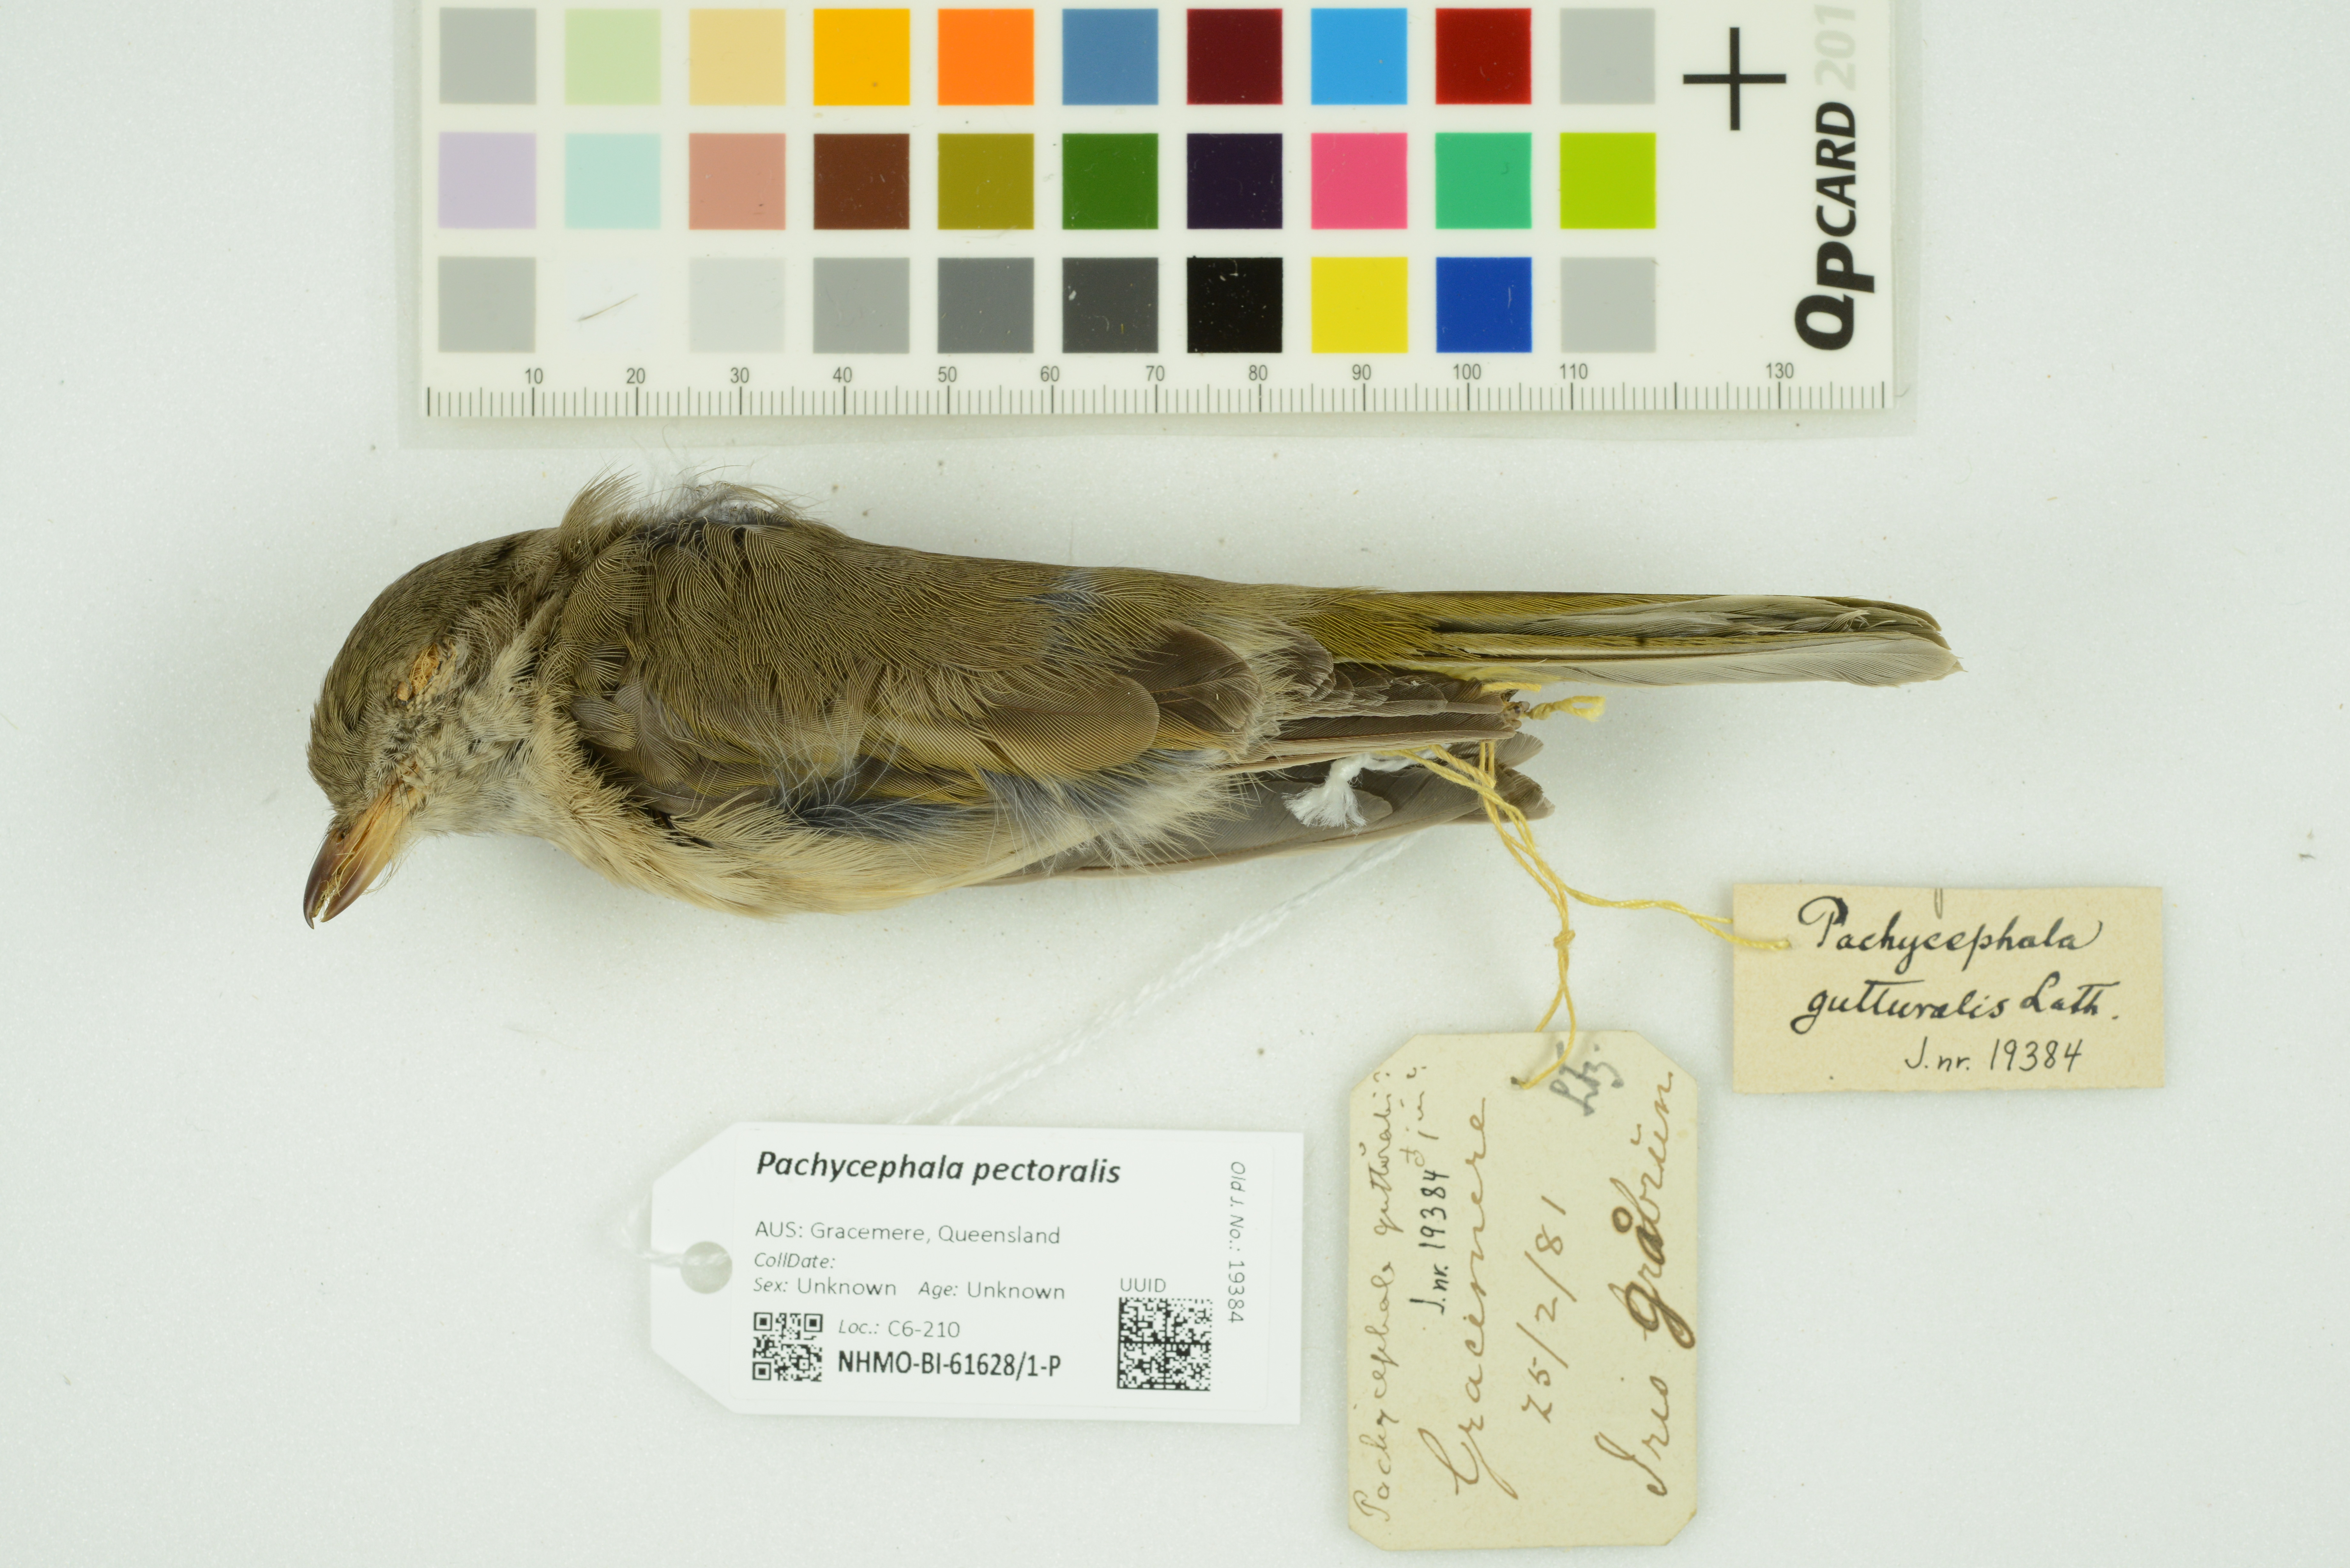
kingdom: Animalia
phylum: Chordata
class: Aves
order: Passeriformes
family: Pachycephalidae
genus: Pachycephala
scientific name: Pachycephala pectoralis
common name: Australian golden whistler
